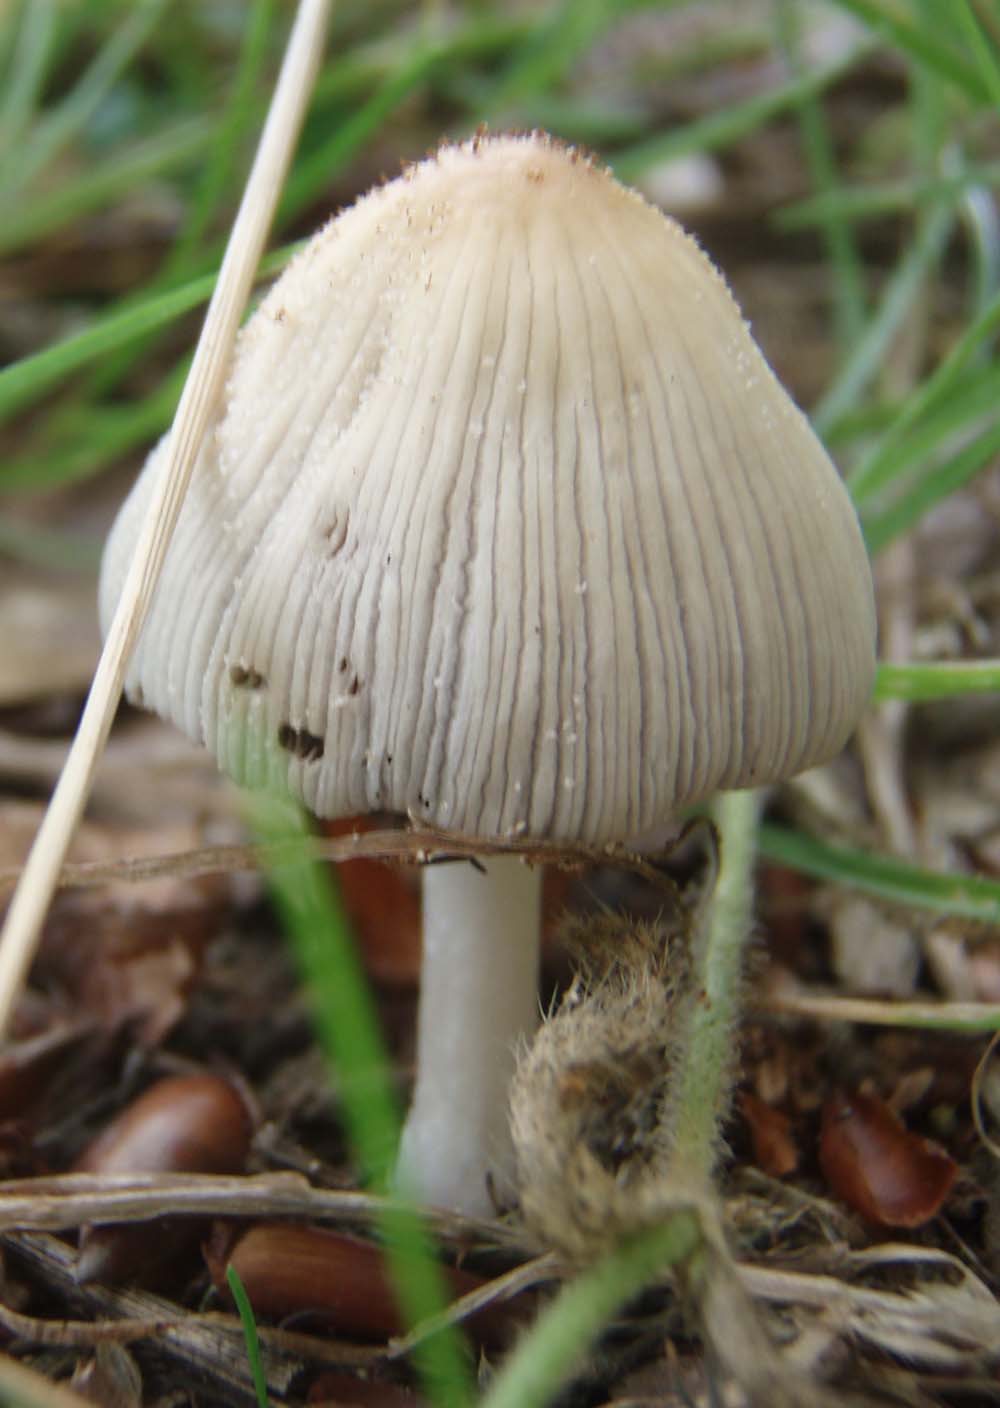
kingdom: Fungi
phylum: Basidiomycota
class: Agaricomycetes
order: Agaricales
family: Psathyrellaceae
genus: Coprinellus
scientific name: Coprinellus domesticus
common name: hus-blækhat
